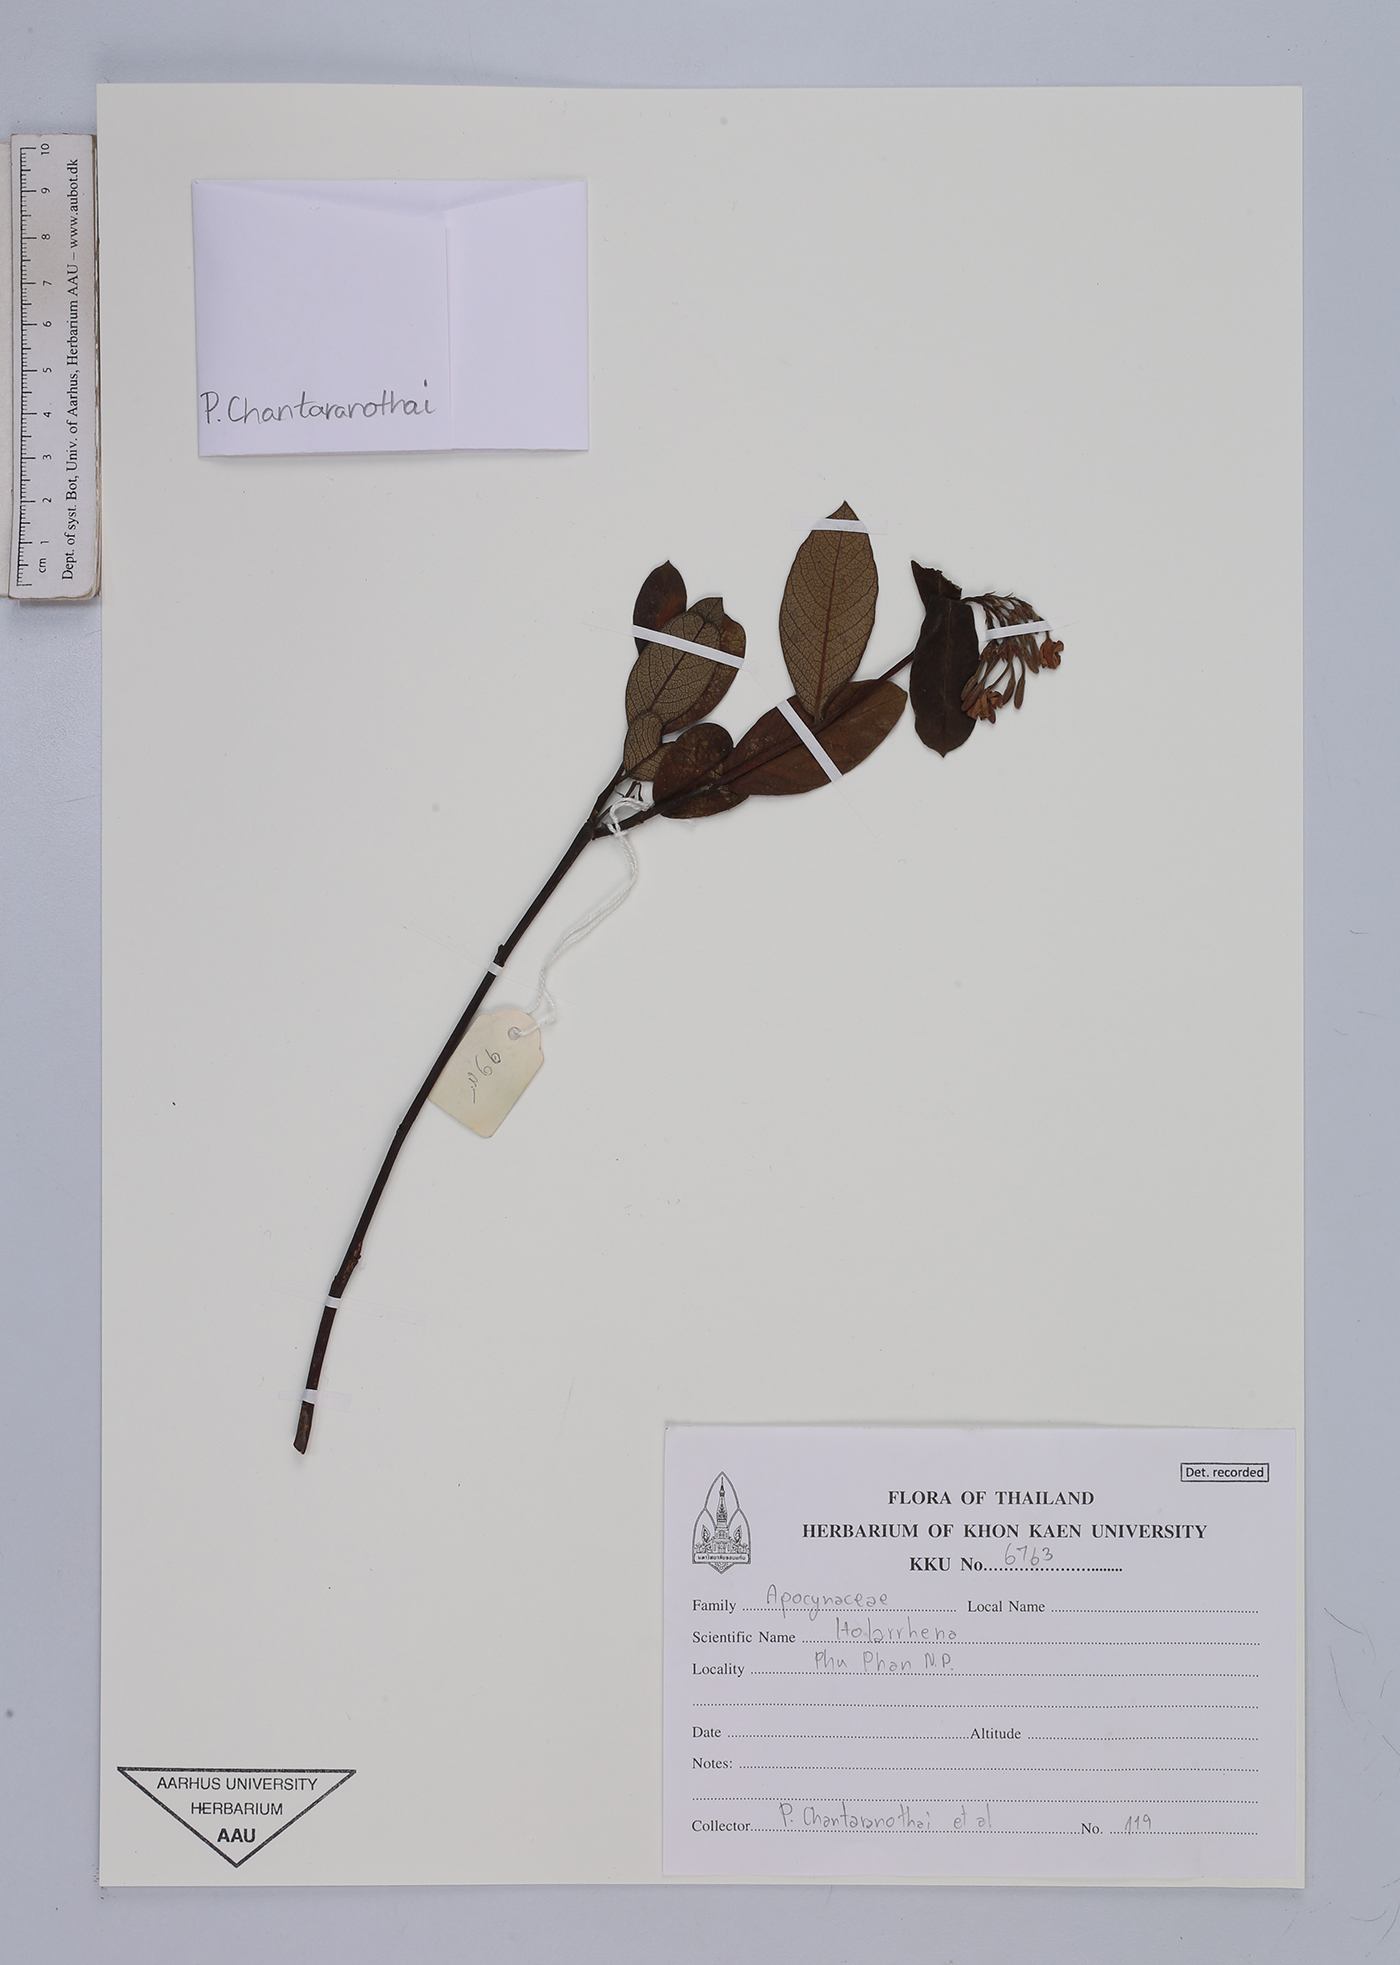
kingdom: Plantae
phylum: Tracheophyta
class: Magnoliopsida
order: Gentianales
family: Apocynaceae
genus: Holarrhena
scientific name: Holarrhena
